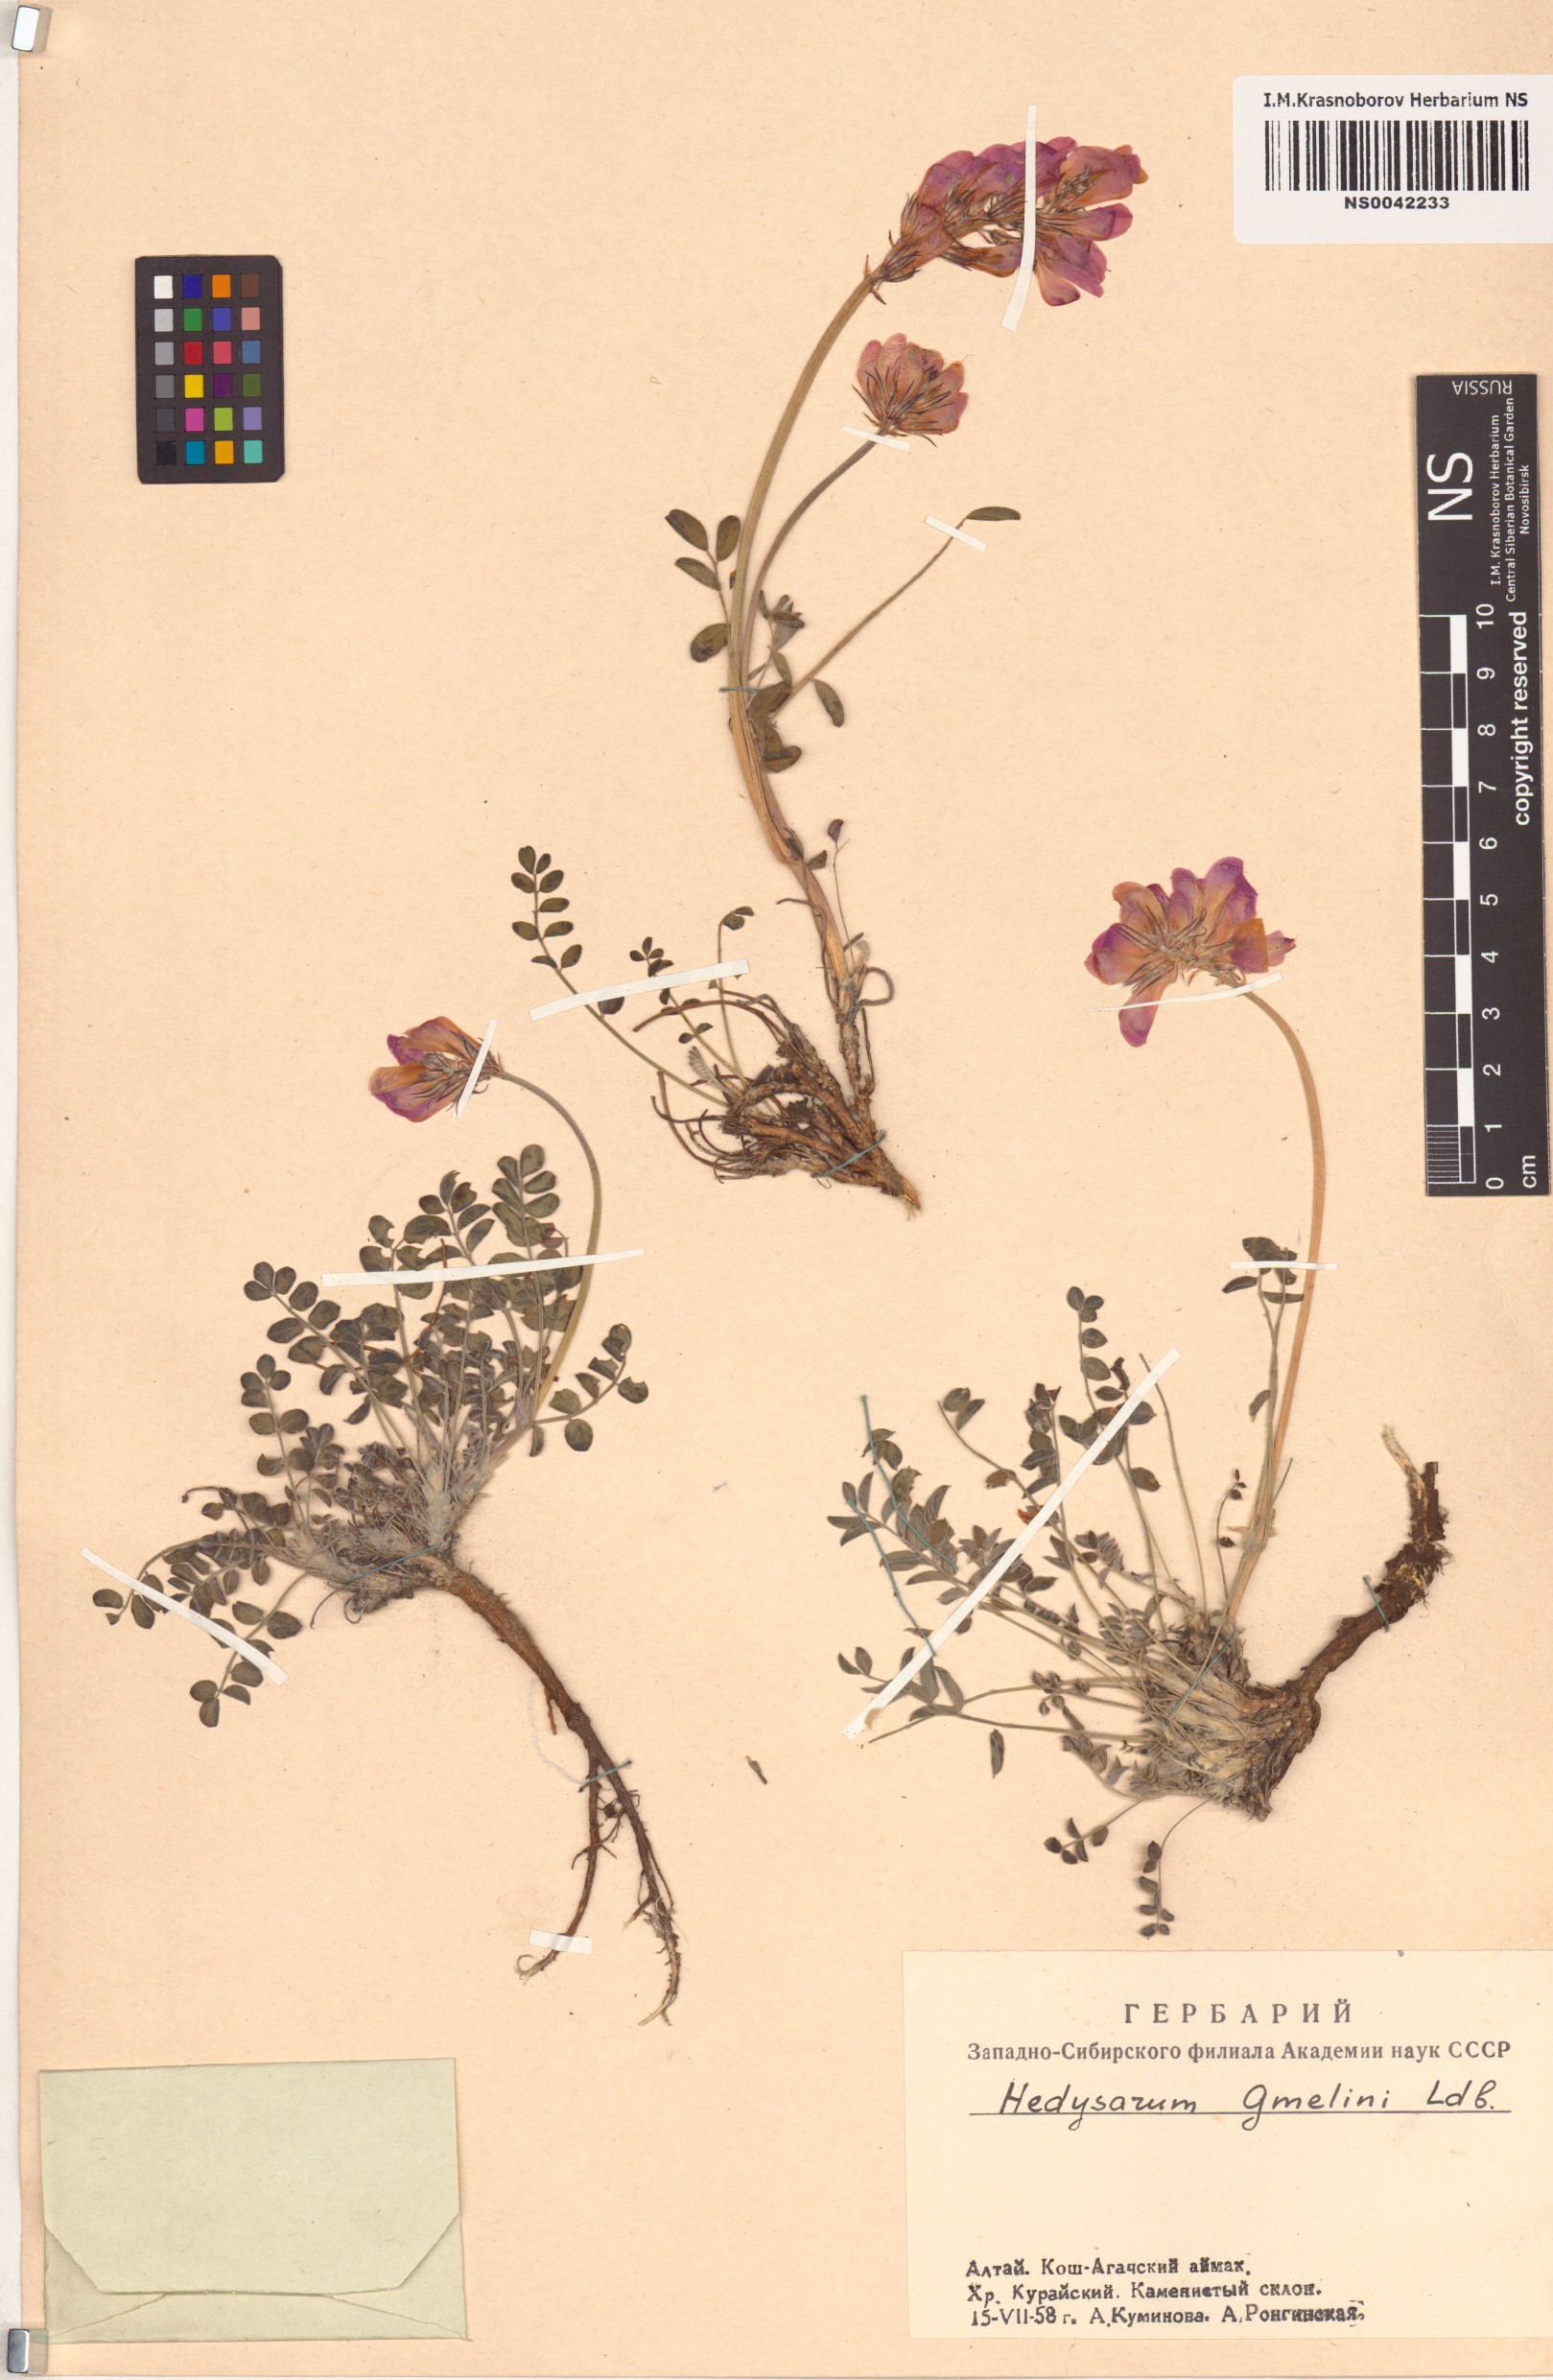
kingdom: Plantae
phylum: Tracheophyta
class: Magnoliopsida
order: Fabales
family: Fabaceae
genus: Hedysarum
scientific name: Hedysarum gmelinii
